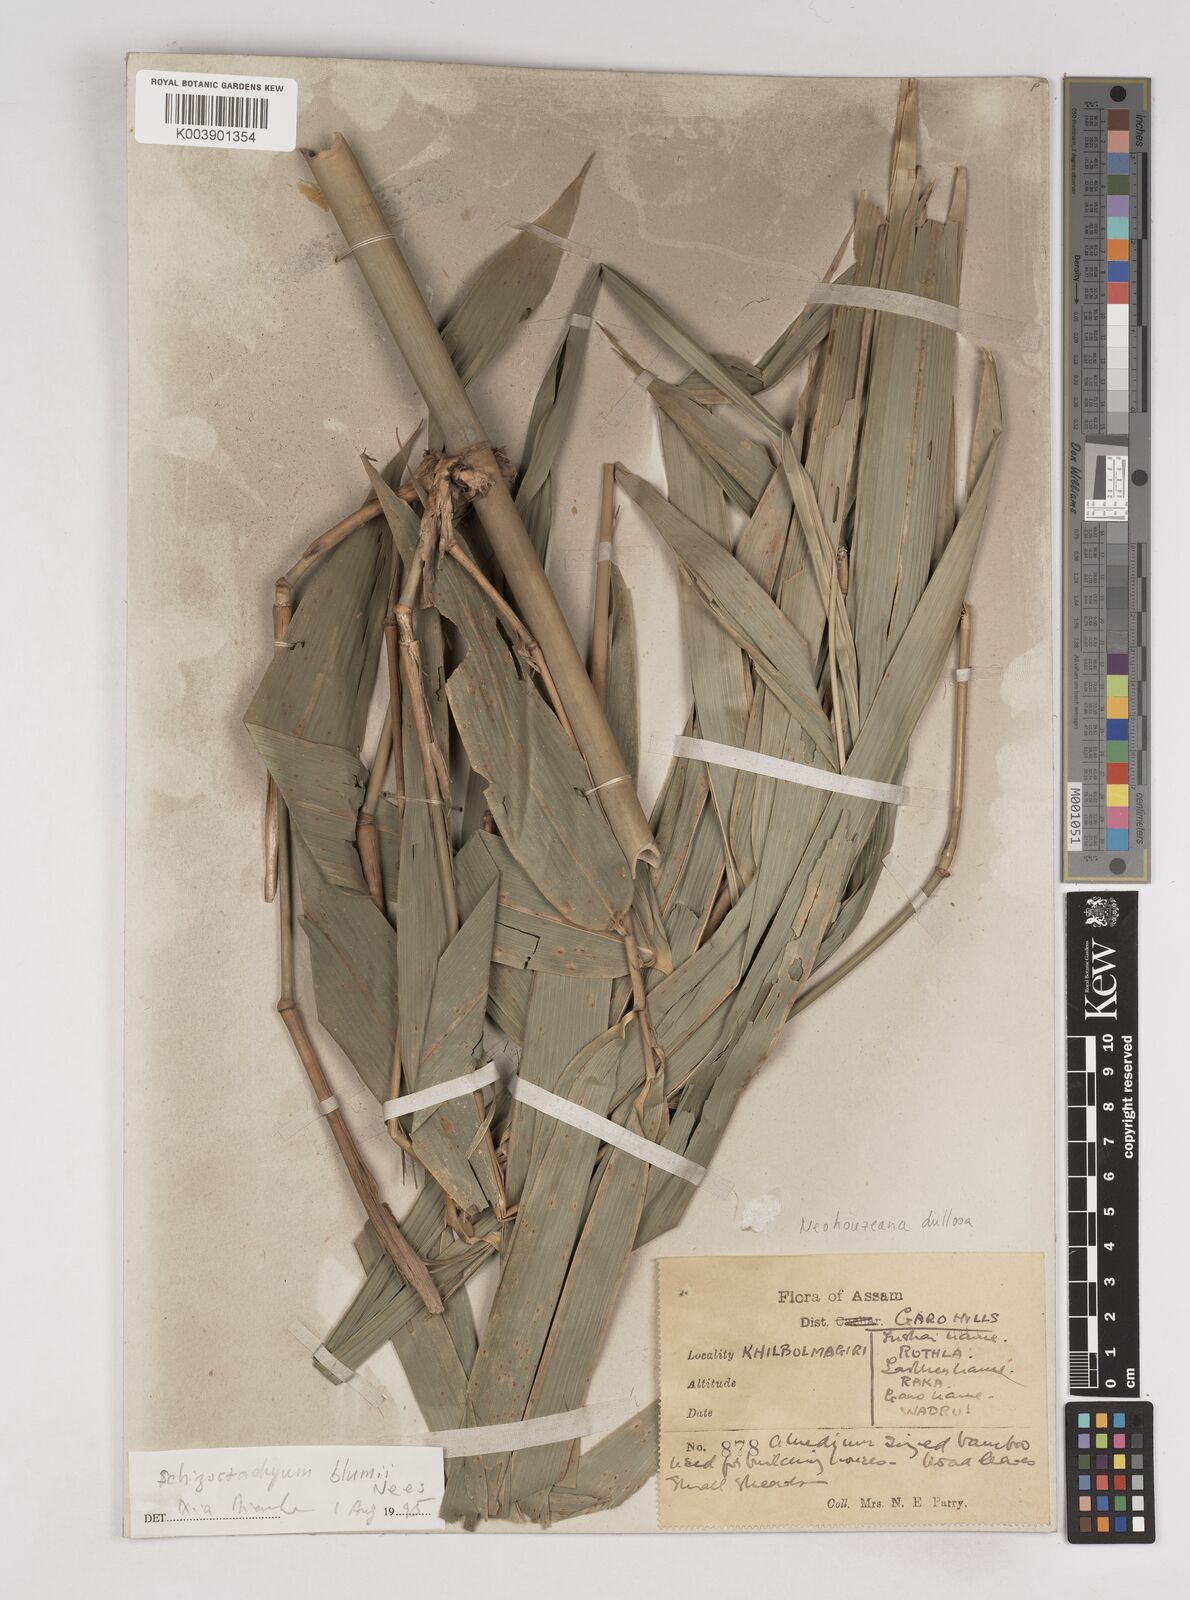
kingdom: Plantae
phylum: Tracheophyta
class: Liliopsida
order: Poales
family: Poaceae
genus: Schizostachyum
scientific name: Schizostachyum dullooa
